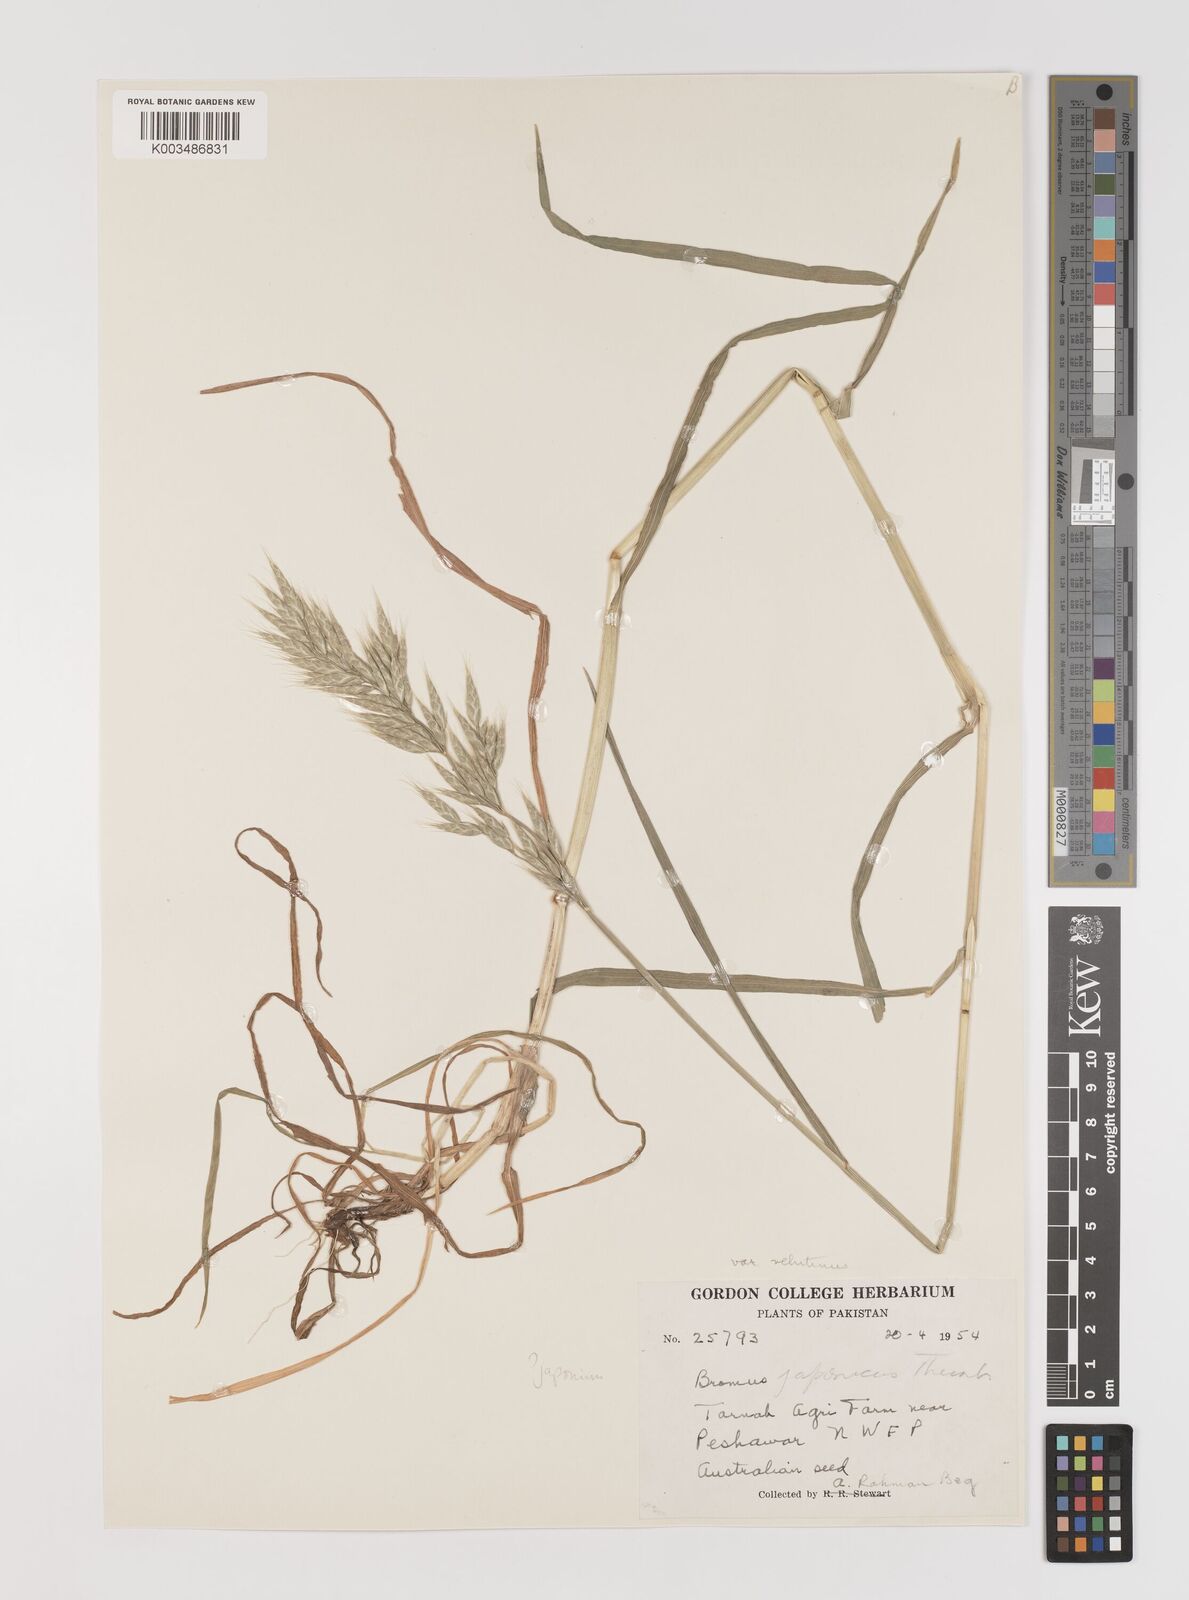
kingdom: Plantae
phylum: Tracheophyta
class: Liliopsida
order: Poales
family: Poaceae
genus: Bromus
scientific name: Bromus
